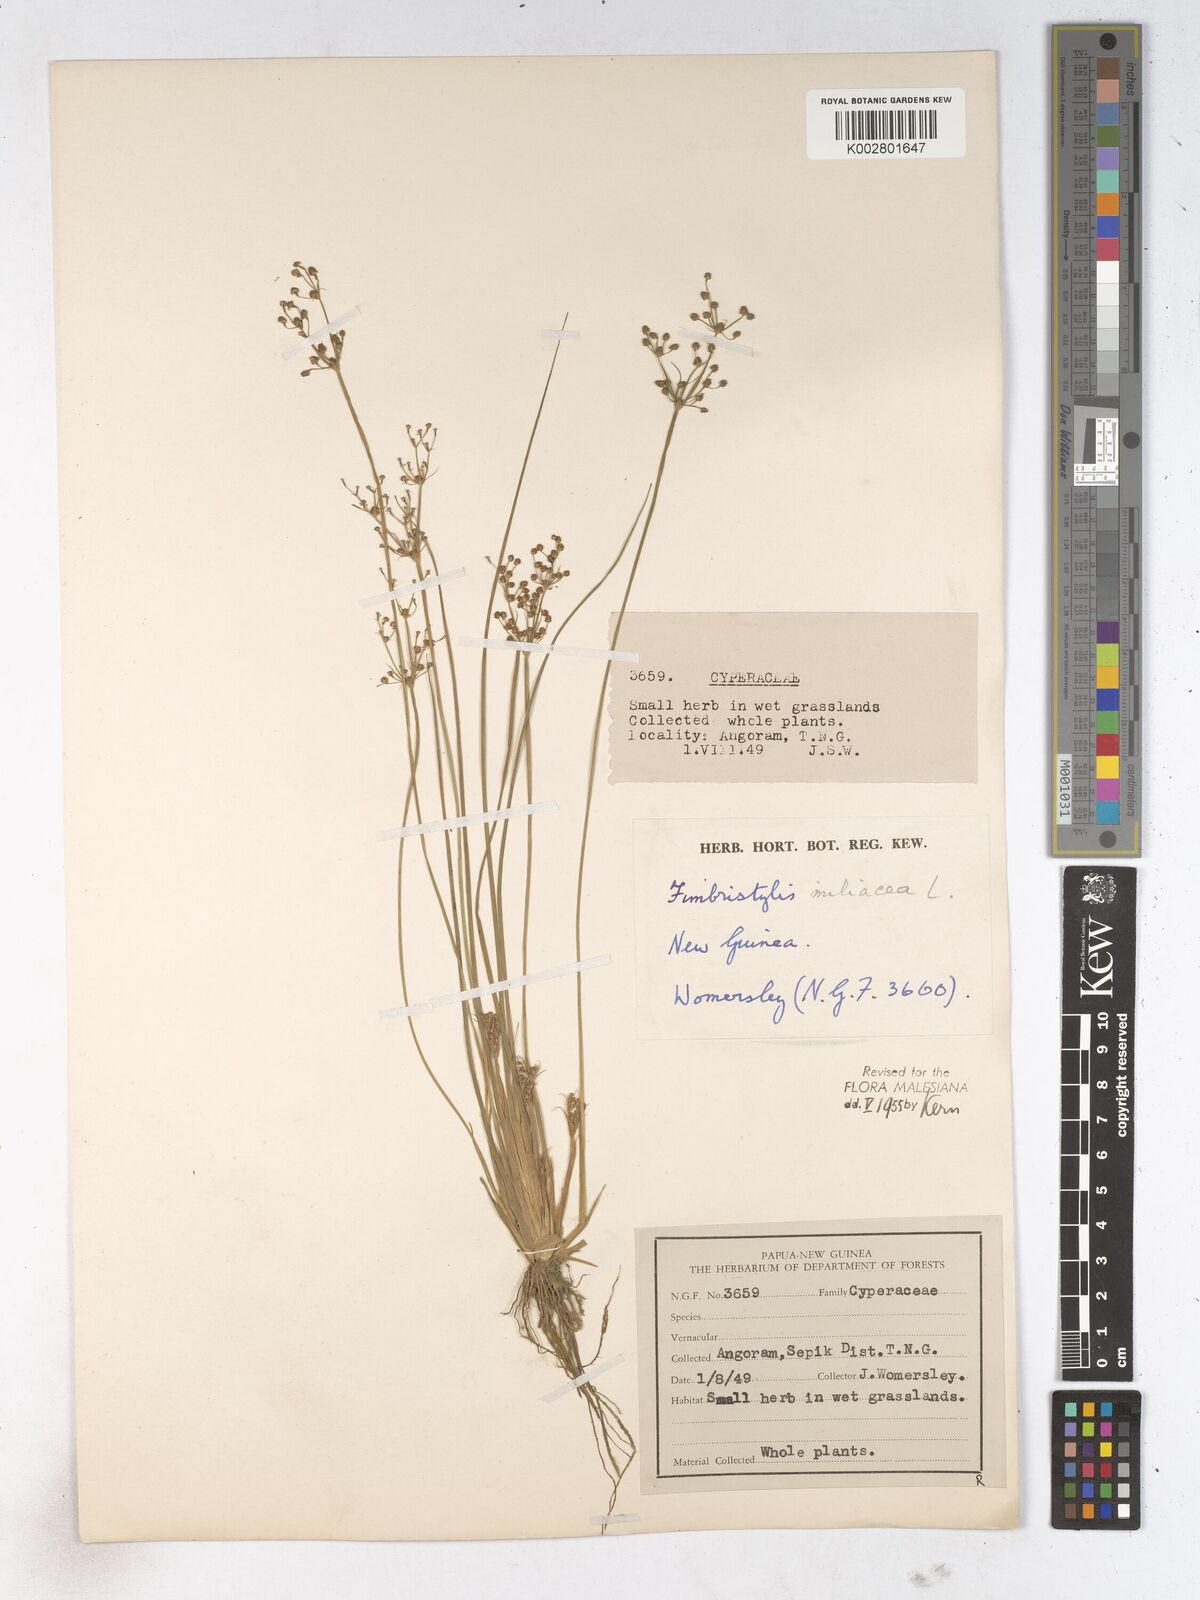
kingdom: Plantae
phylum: Tracheophyta
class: Liliopsida
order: Poales
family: Cyperaceae
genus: Fimbristylis
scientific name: Fimbristylis littoralis
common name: Fimbry
